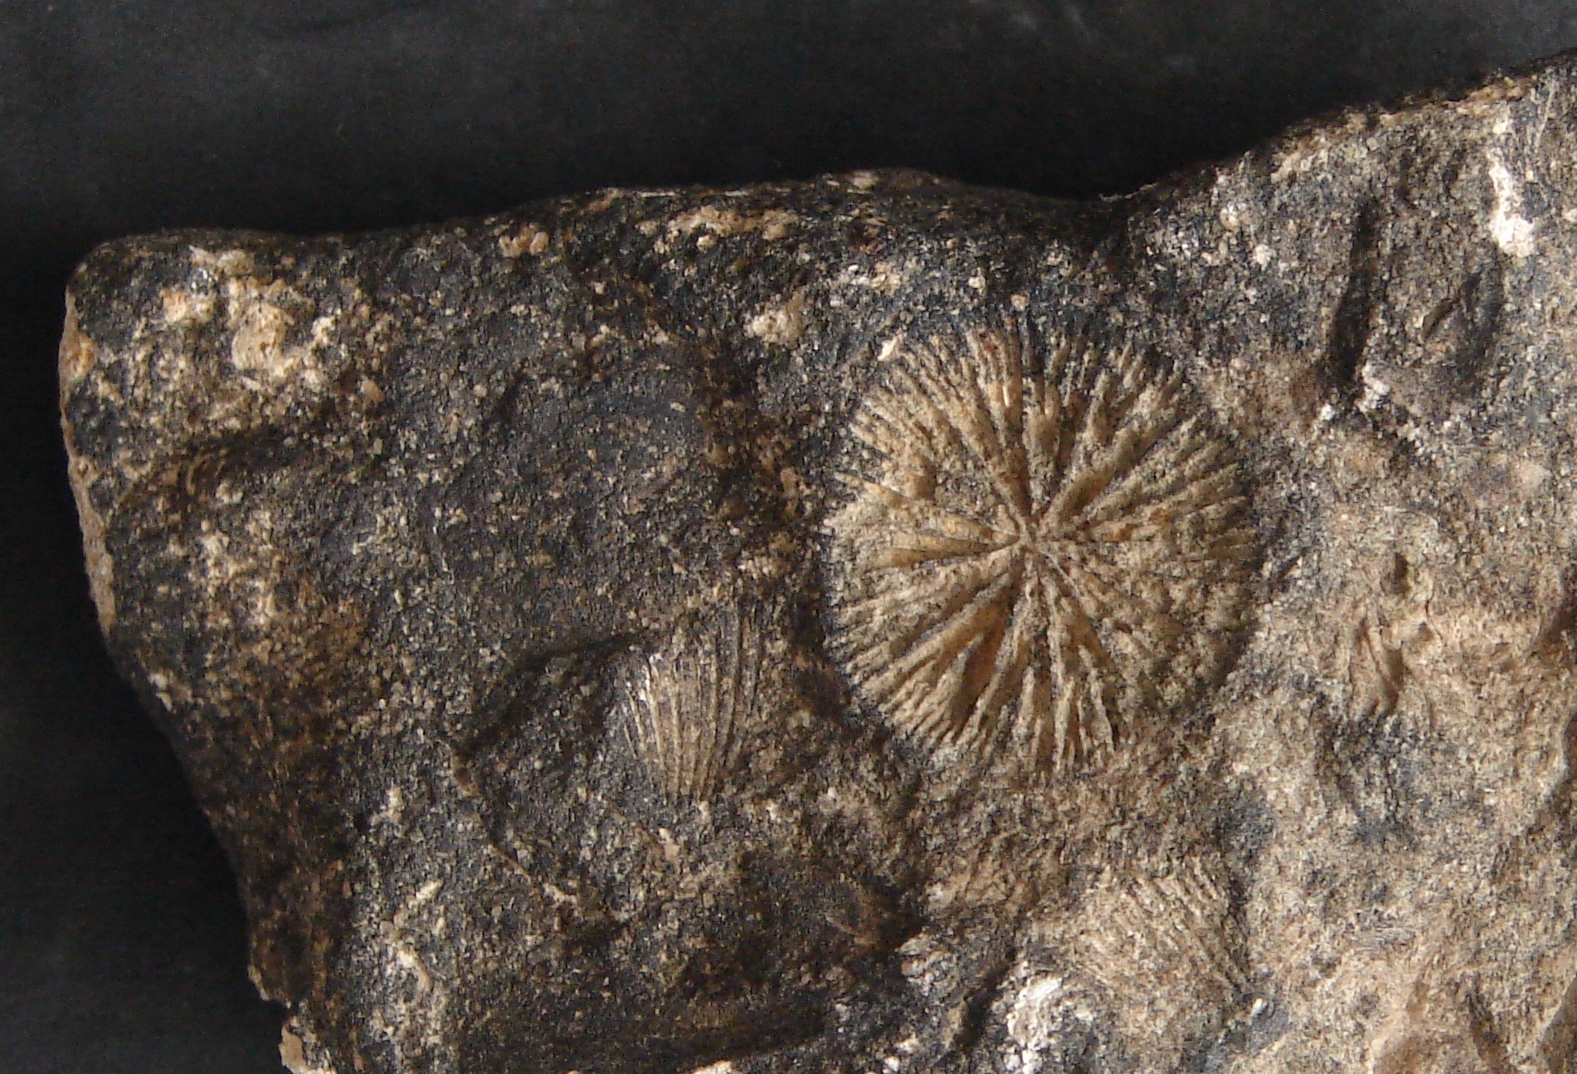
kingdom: Animalia
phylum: Cnidaria
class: Anthozoa
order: Scleractinia
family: Thecosmiliidae
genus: Montlivaltia
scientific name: Montlivaltia
